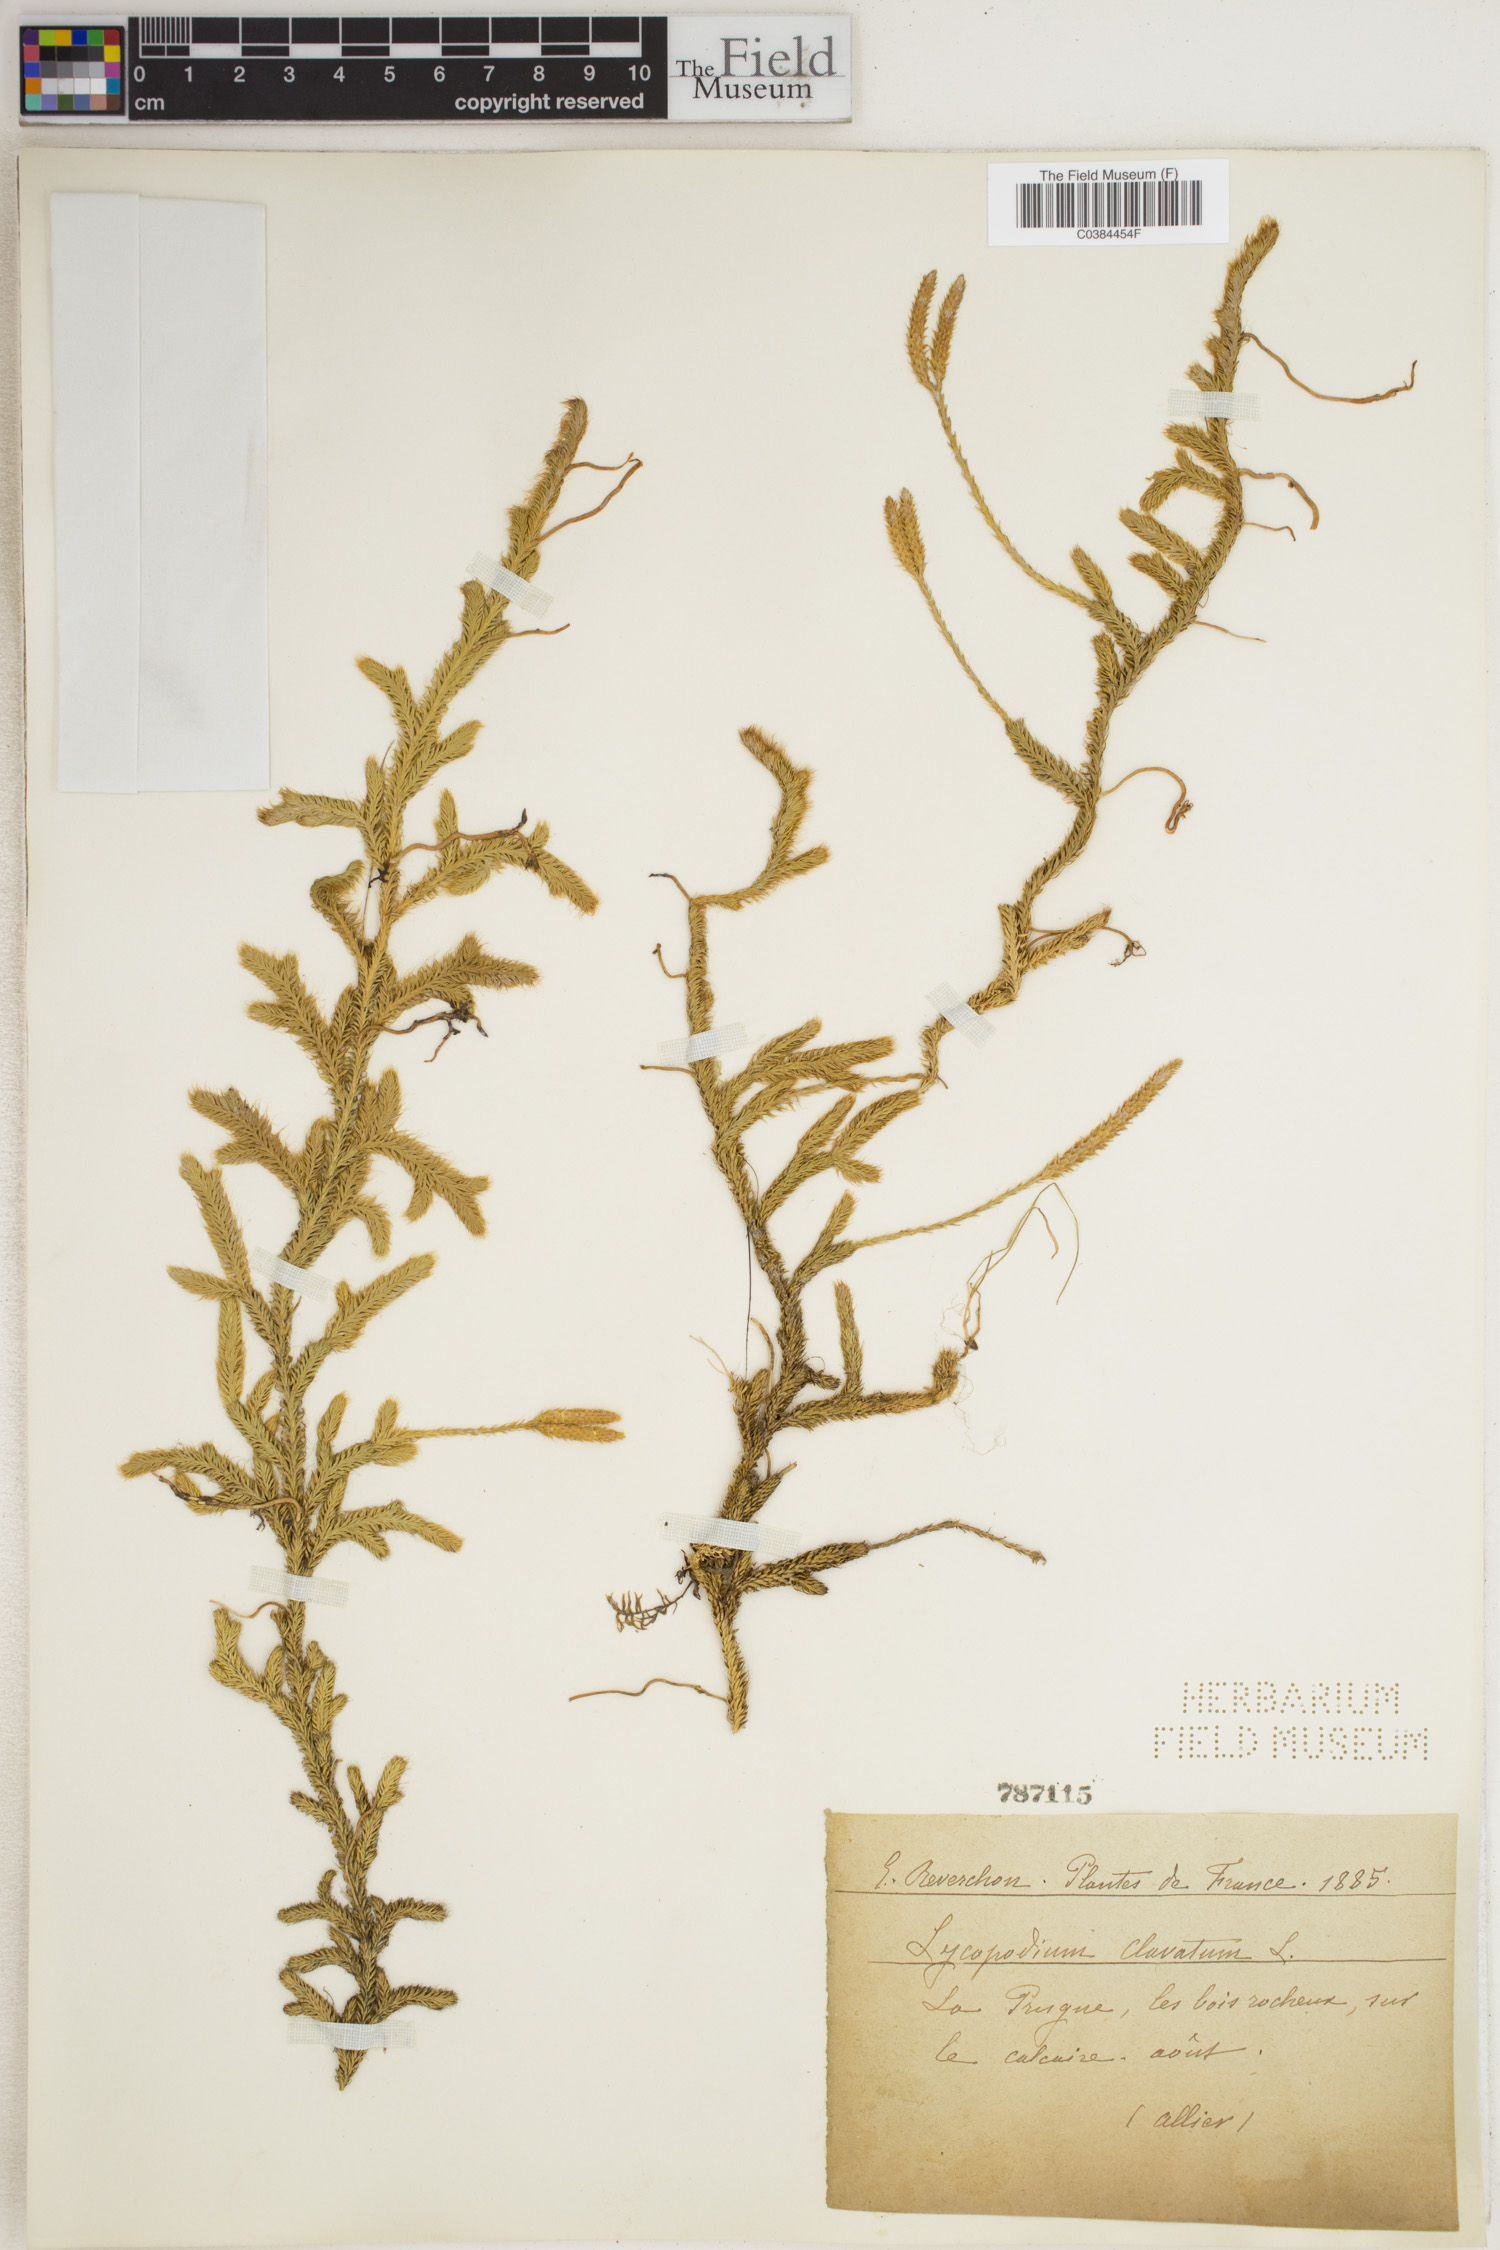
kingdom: Plantae
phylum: Tracheophyta
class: Lycopodiopsida
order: Lycopodiales
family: Lycopodiaceae
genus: Lycopodium
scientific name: Lycopodium clavatum
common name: Stag's-horn clubmoss
